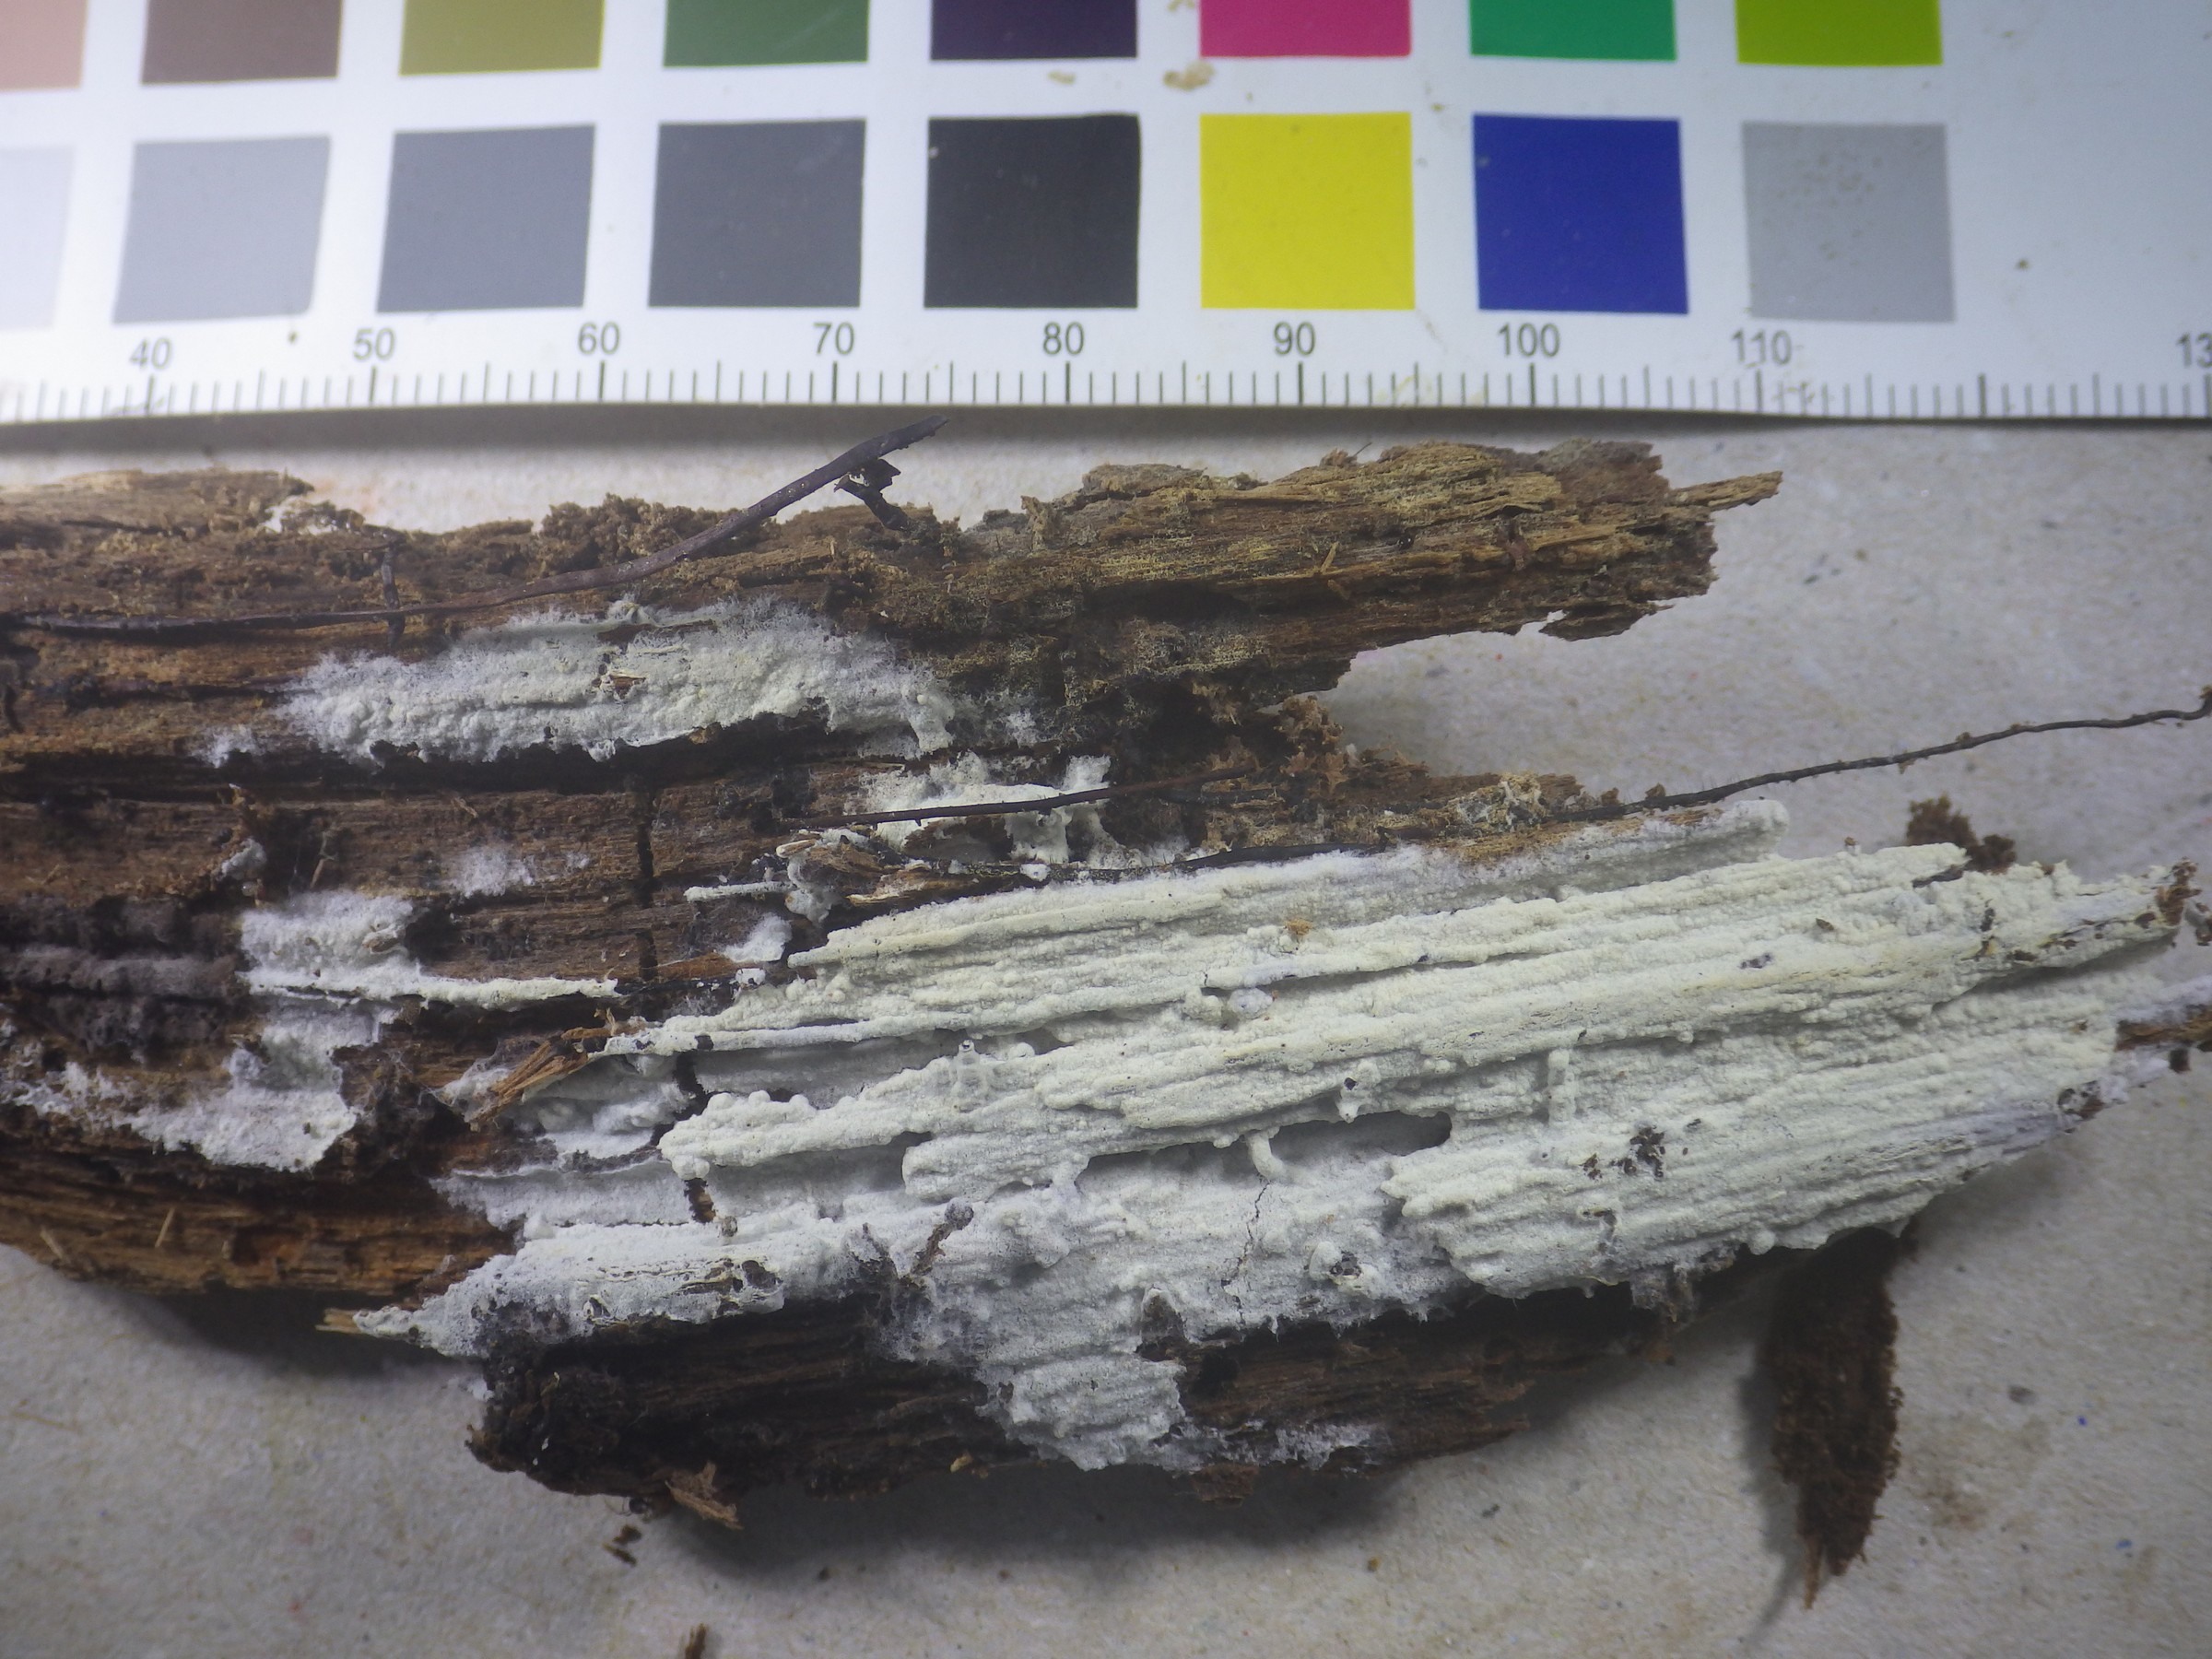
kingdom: Fungi
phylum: Basidiomycota
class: Agaricomycetes
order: Atheliales
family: Atheliaceae
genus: Tylospora
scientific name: Tylospora asterophora
